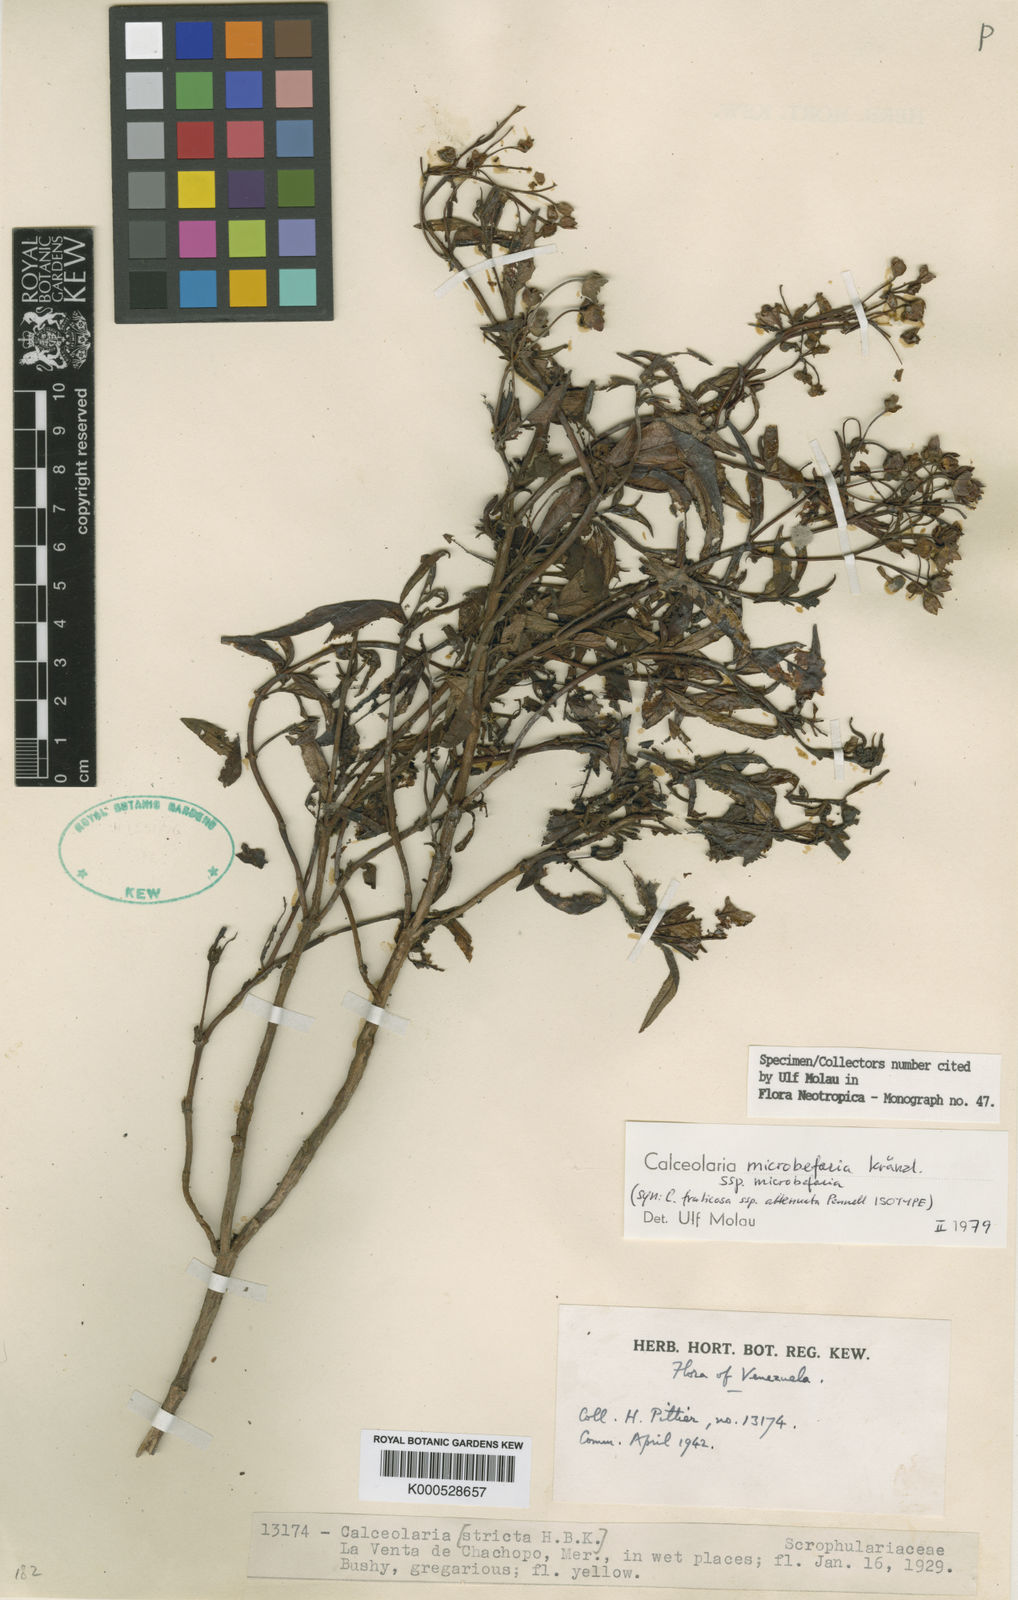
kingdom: Plantae
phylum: Tracheophyta
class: Magnoliopsida
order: Lamiales
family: Calceolariaceae
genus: Calceolaria
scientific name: Calceolaria microbefaria
